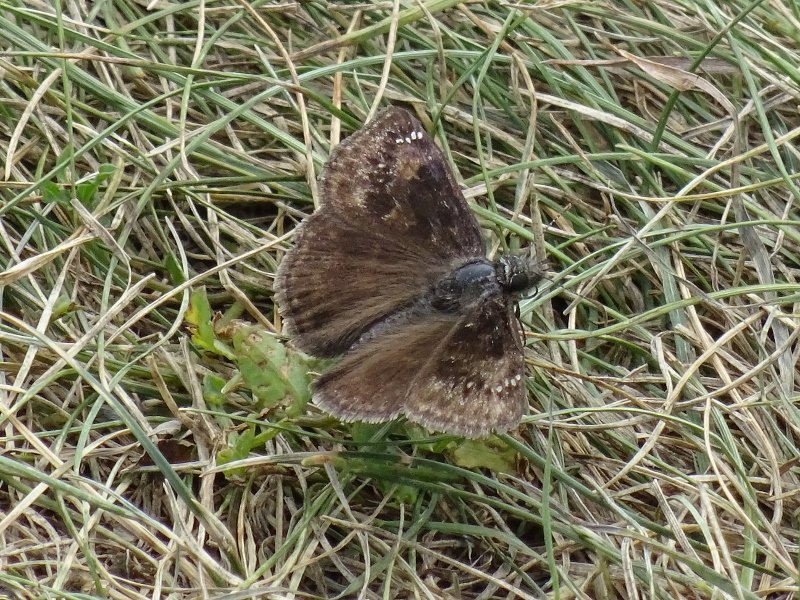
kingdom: Animalia
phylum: Arthropoda
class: Insecta
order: Lepidoptera
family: Hesperiidae
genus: Gesta
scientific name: Gesta
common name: Wild Indigo Duskywing
